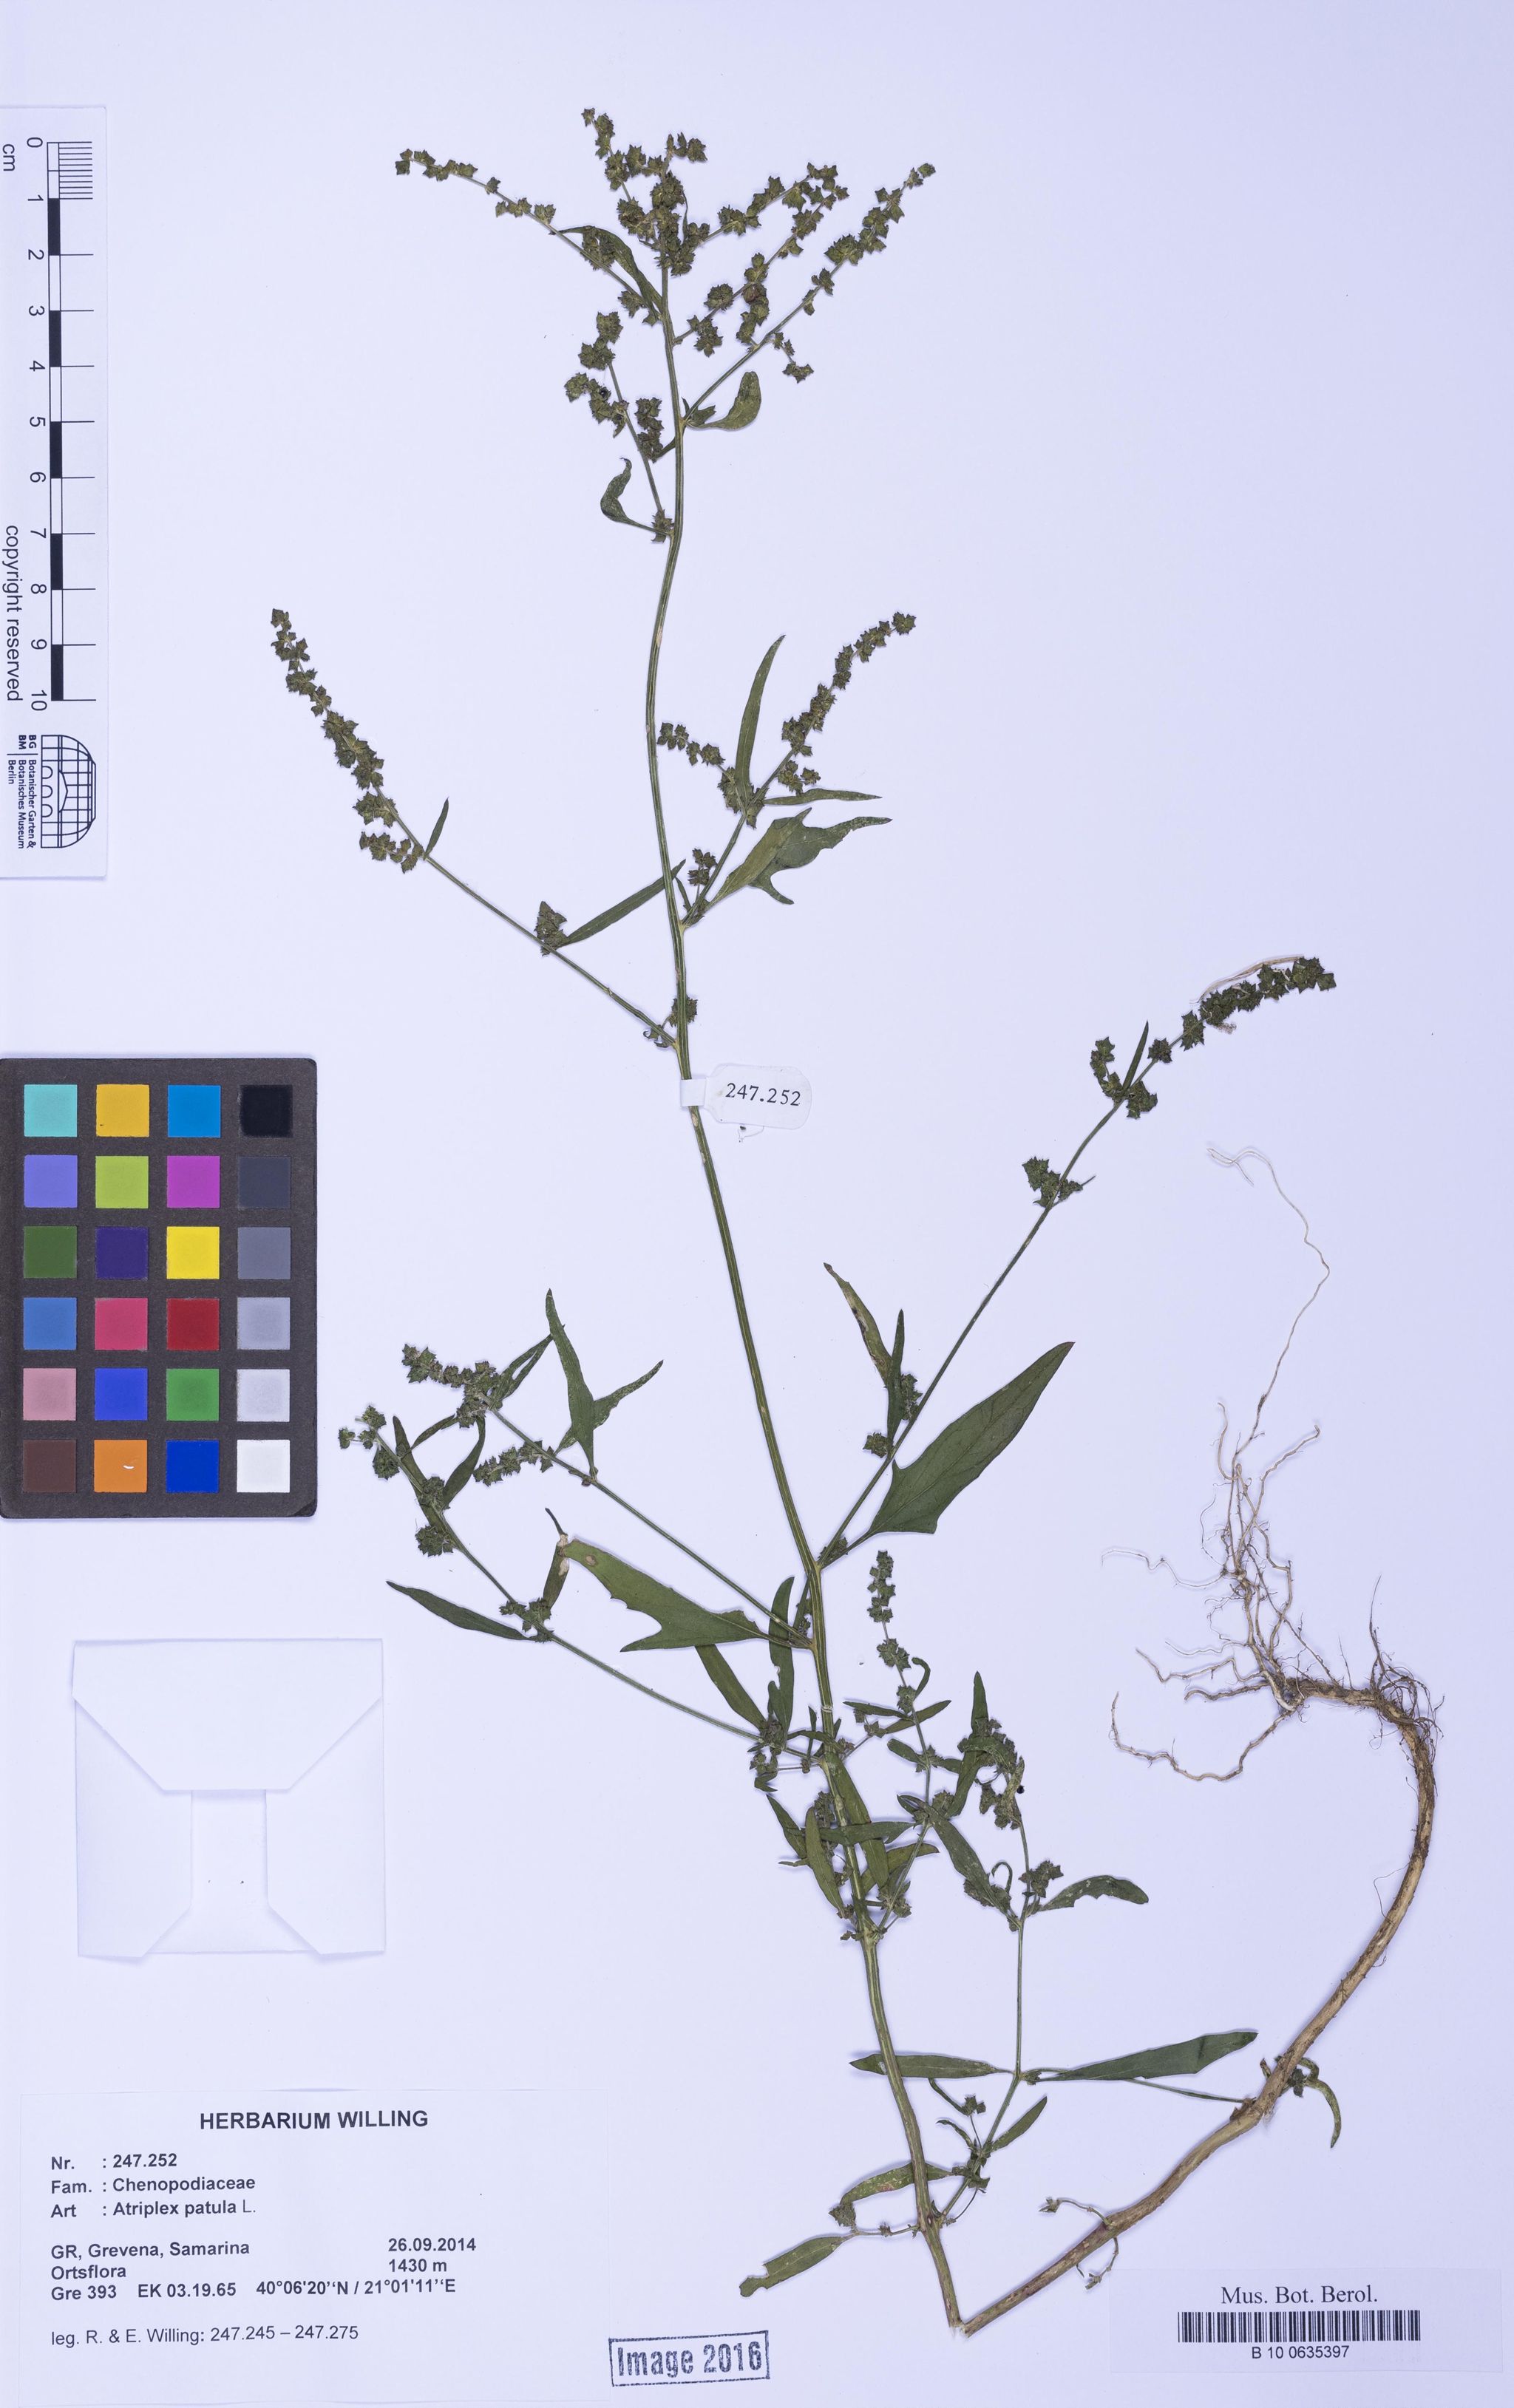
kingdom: Plantae
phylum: Tracheophyta
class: Magnoliopsida
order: Caryophyllales
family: Amaranthaceae
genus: Atriplex
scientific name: Atriplex patula
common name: Common orache
